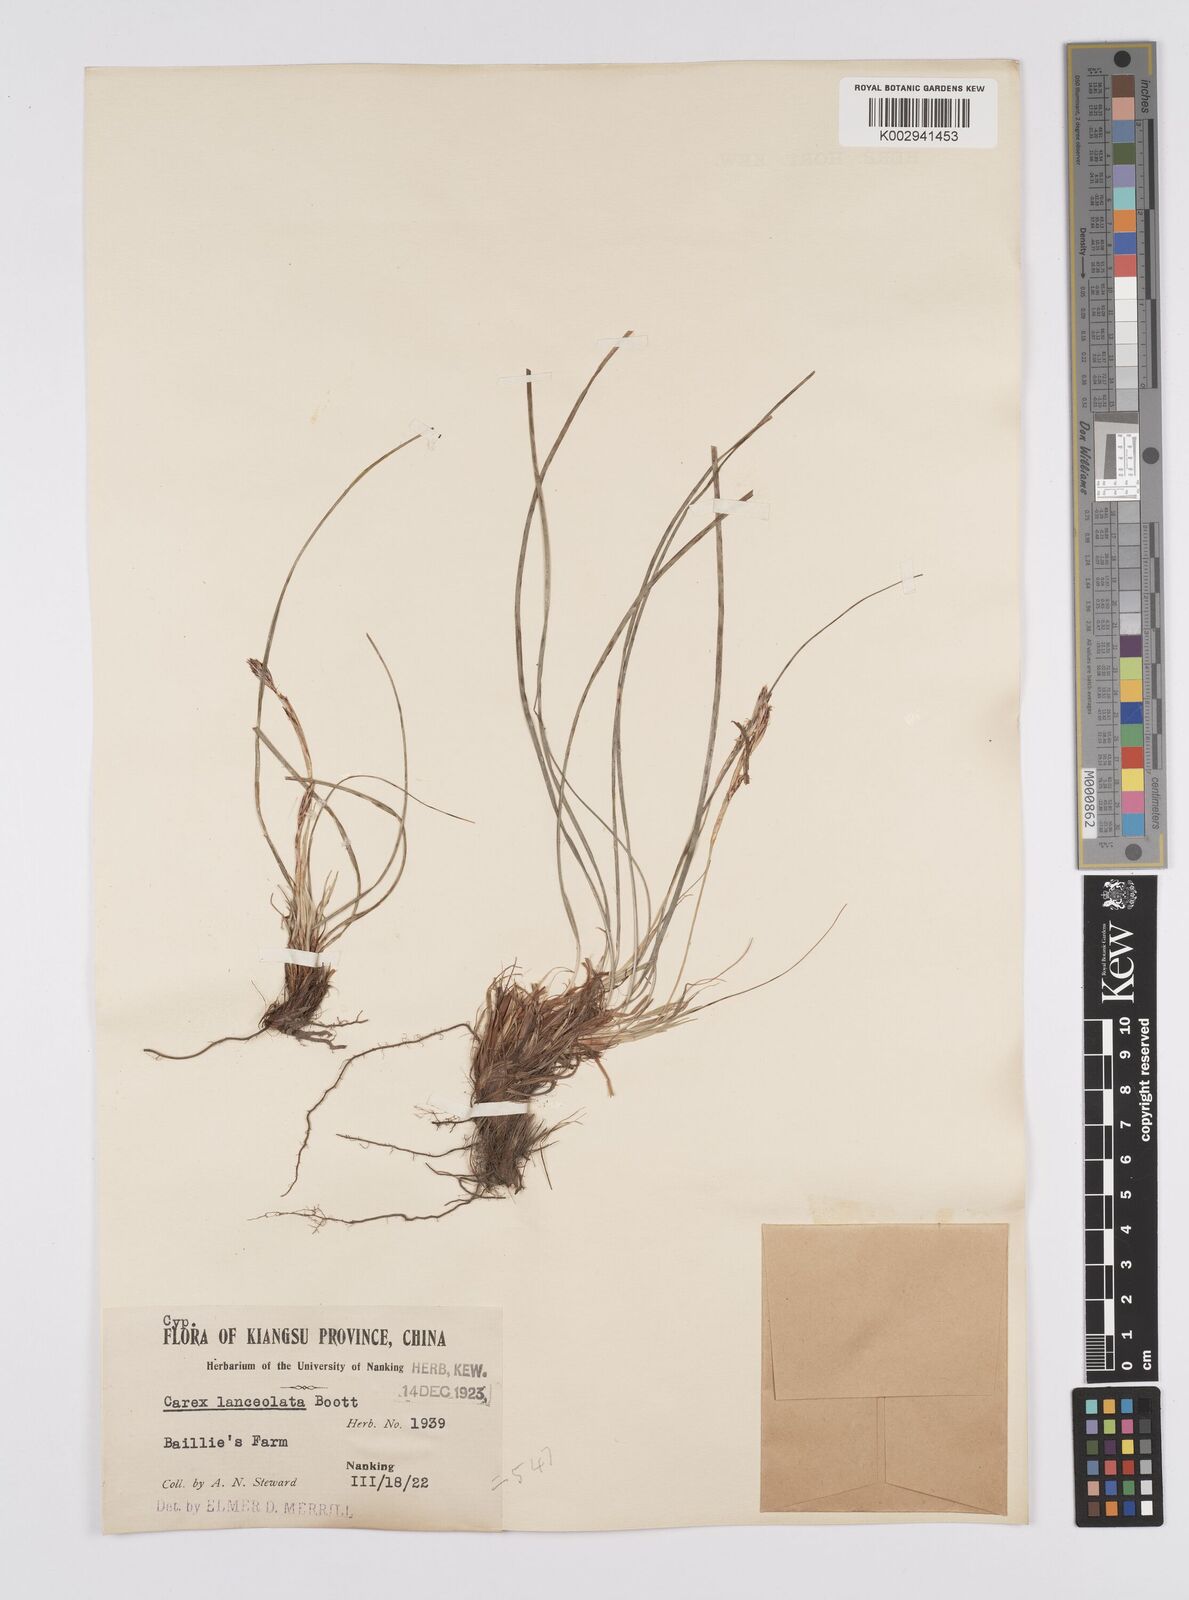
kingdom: Plantae
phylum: Tracheophyta
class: Liliopsida
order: Poales
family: Cyperaceae
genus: Carex
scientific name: Carex lanceolata
